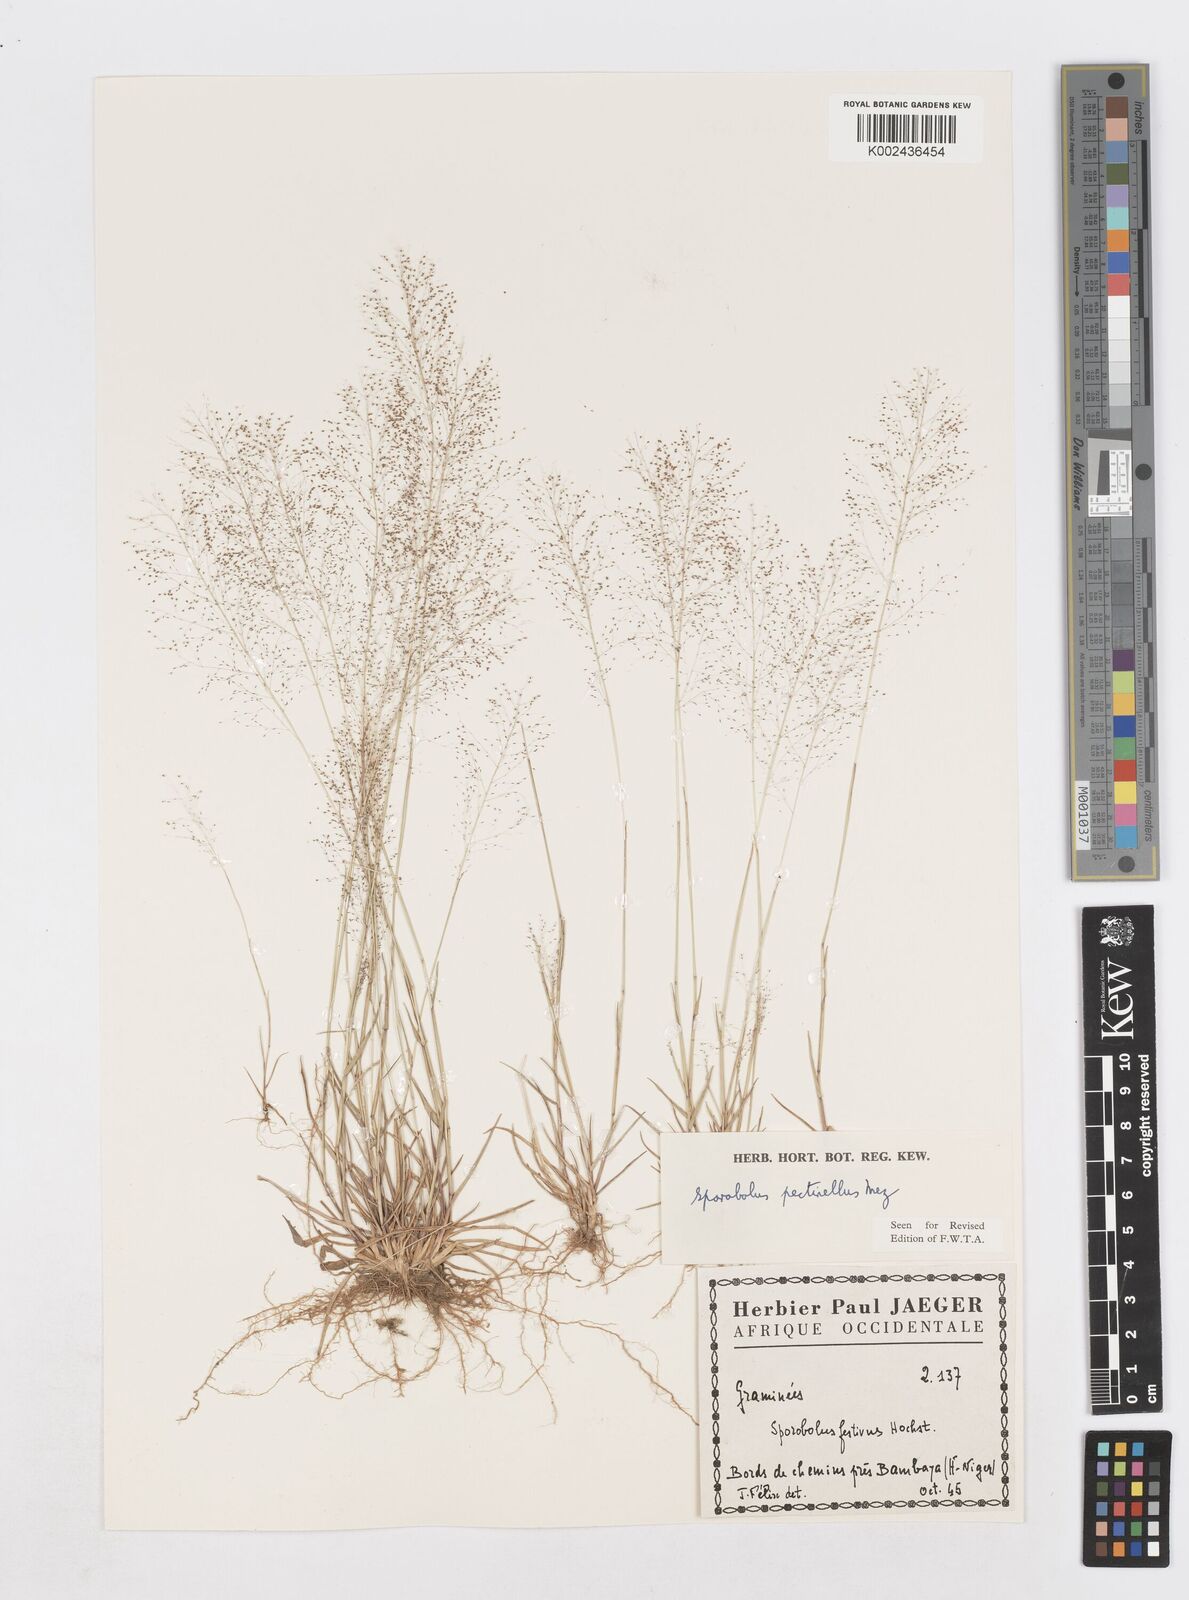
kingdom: Plantae
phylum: Tracheophyta
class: Liliopsida
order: Poales
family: Poaceae
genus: Sporobolus
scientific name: Sporobolus pectinellus
